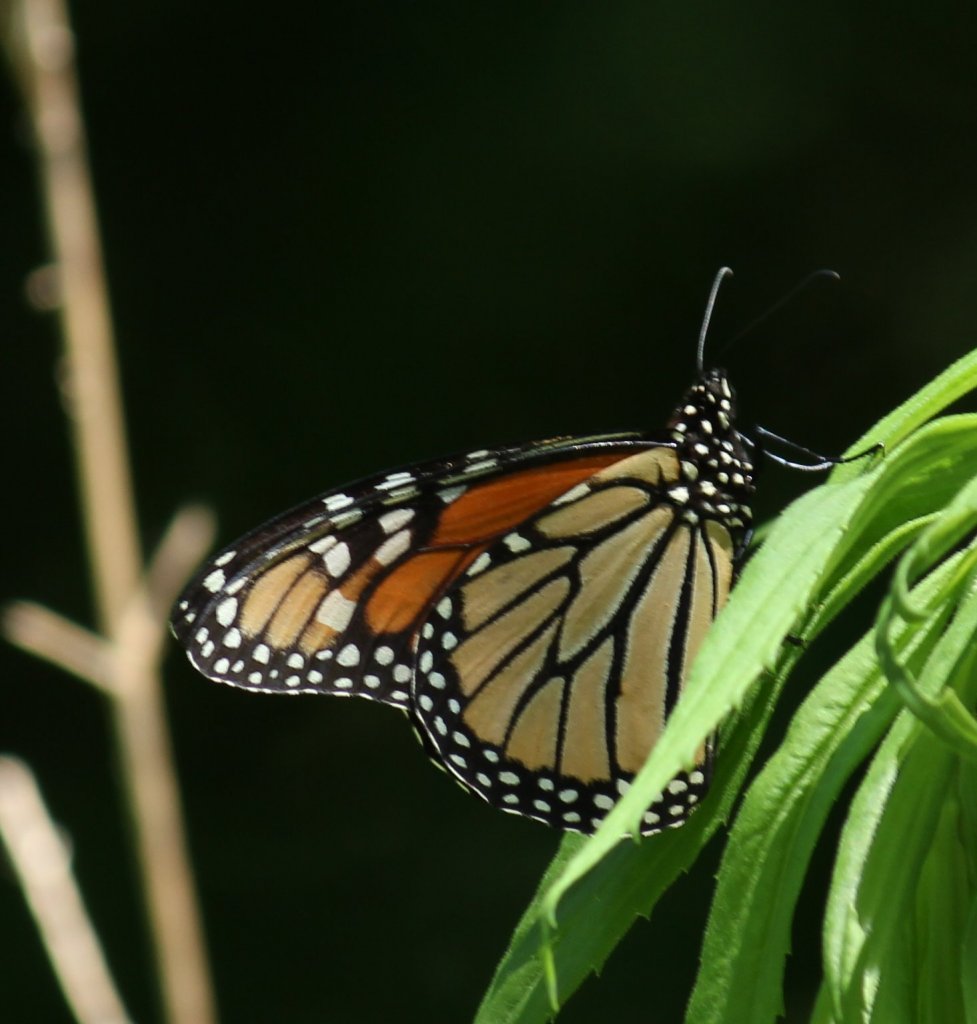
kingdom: Animalia
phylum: Arthropoda
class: Insecta
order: Lepidoptera
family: Nymphalidae
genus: Danaus
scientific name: Danaus plexippus
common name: Monarch
